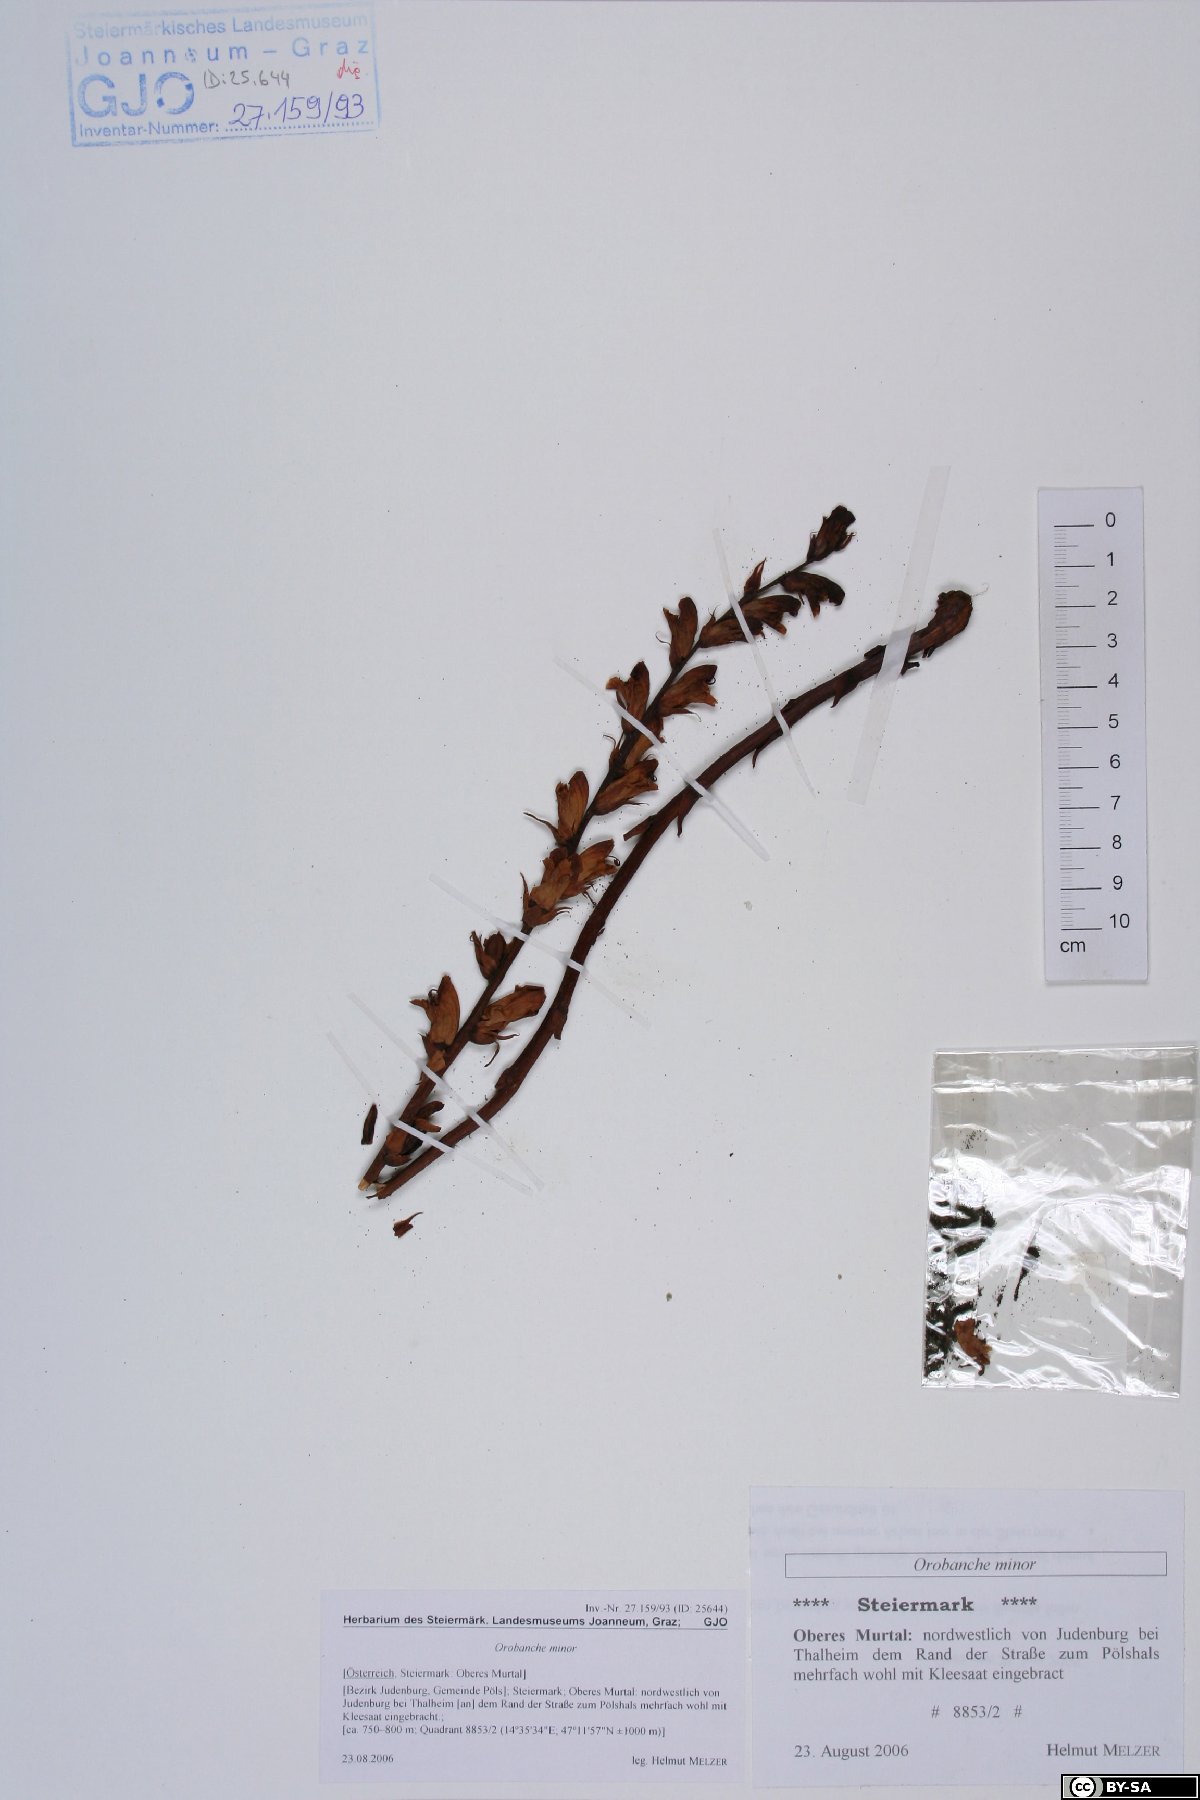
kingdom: Plantae
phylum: Tracheophyta
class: Magnoliopsida
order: Lamiales
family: Orobanchaceae
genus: Orobanche
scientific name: Orobanche minor
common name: Common broomrape
